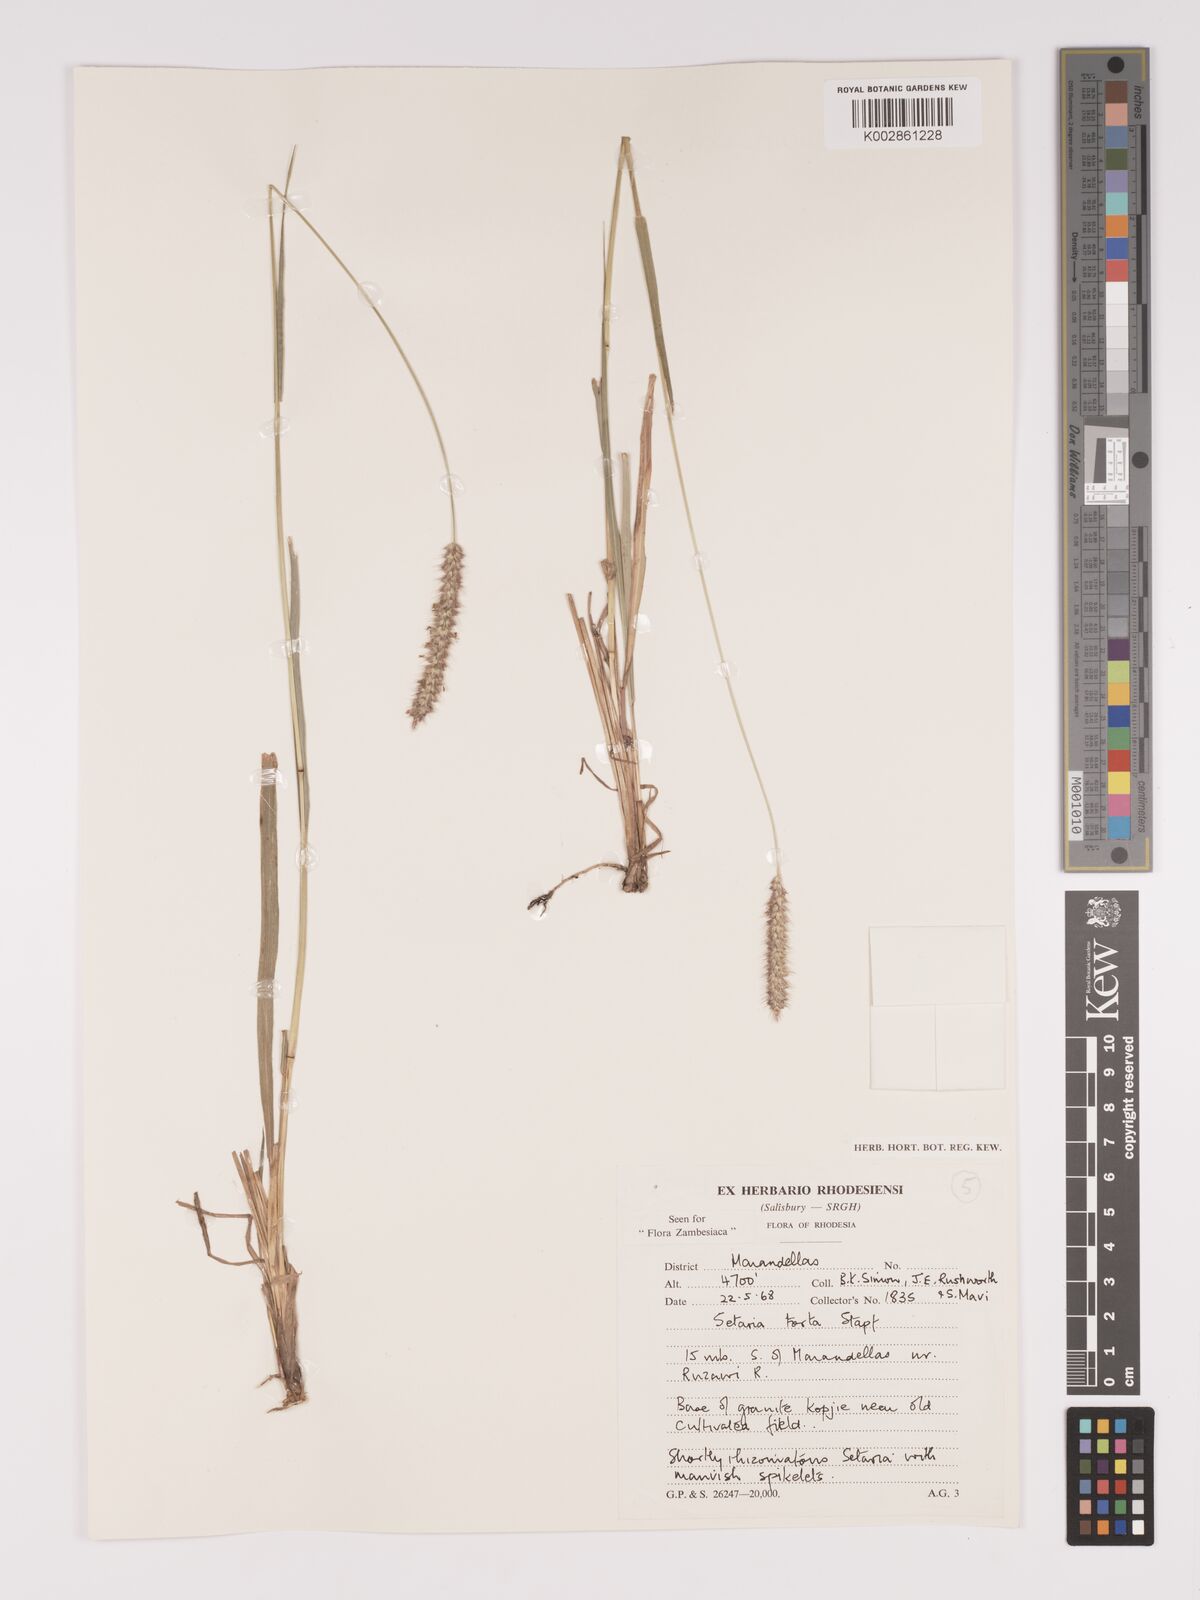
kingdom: Plantae
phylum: Tracheophyta
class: Liliopsida
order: Poales
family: Poaceae
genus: Setaria
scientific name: Setaria sphacelata
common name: African bristlegrass
